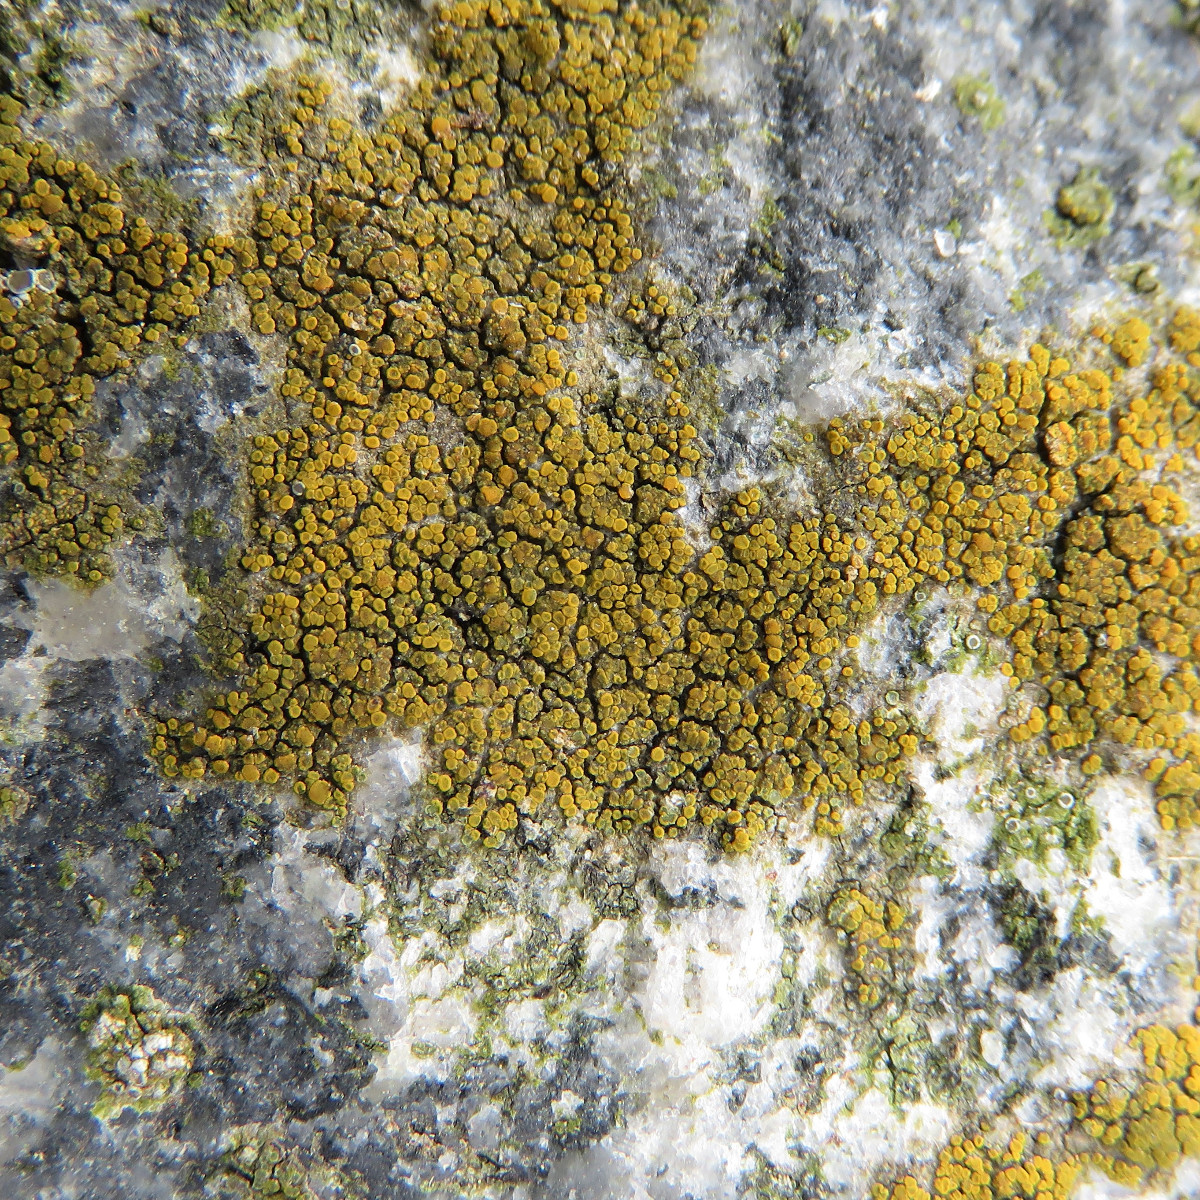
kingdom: Fungi
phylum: Ascomycota
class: Candelariomycetes
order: Candelariales
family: Candelariaceae
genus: Candelariella
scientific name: Candelariella vitellina
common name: almindelig æggeblommelav
